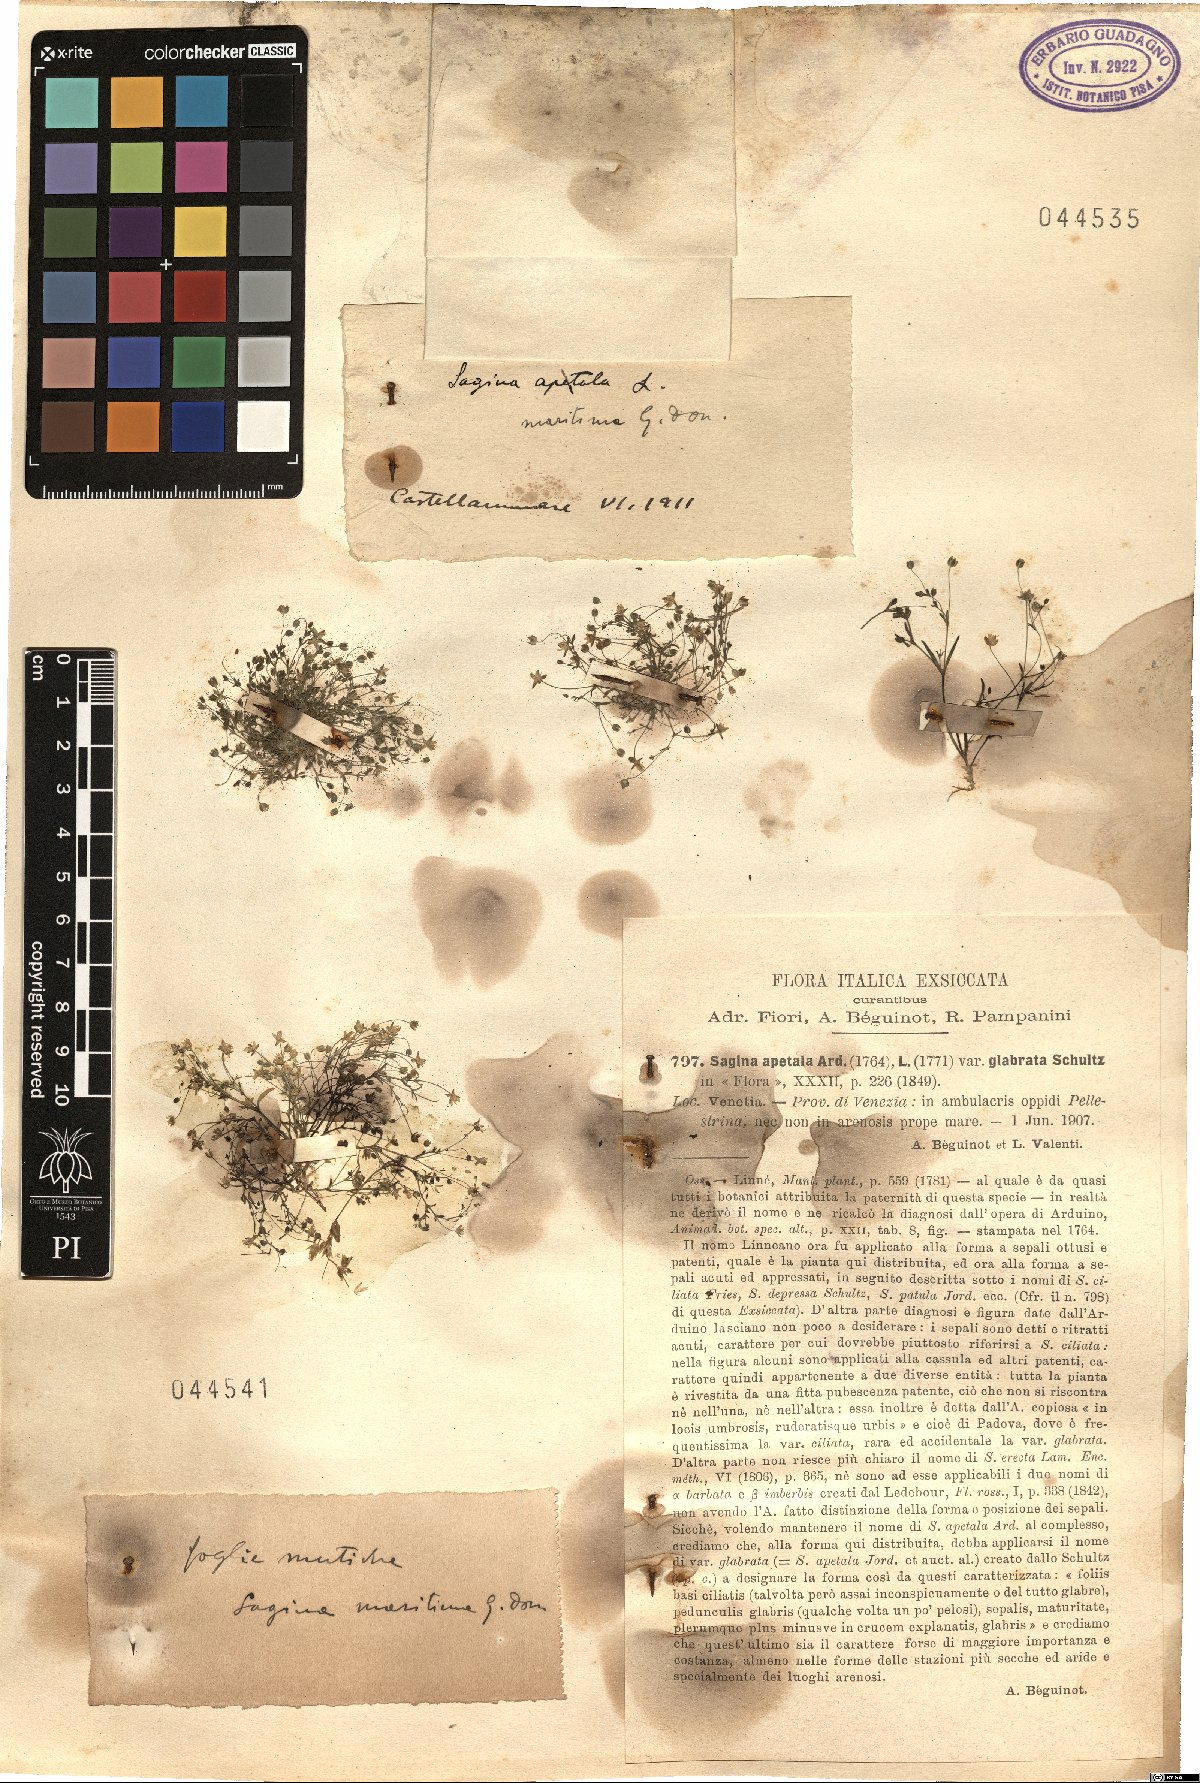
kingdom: Plantae
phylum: Tracheophyta
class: Magnoliopsida
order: Caryophyllales
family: Caryophyllaceae
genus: Sagina
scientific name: Sagina maritima
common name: Sea pearlwort
